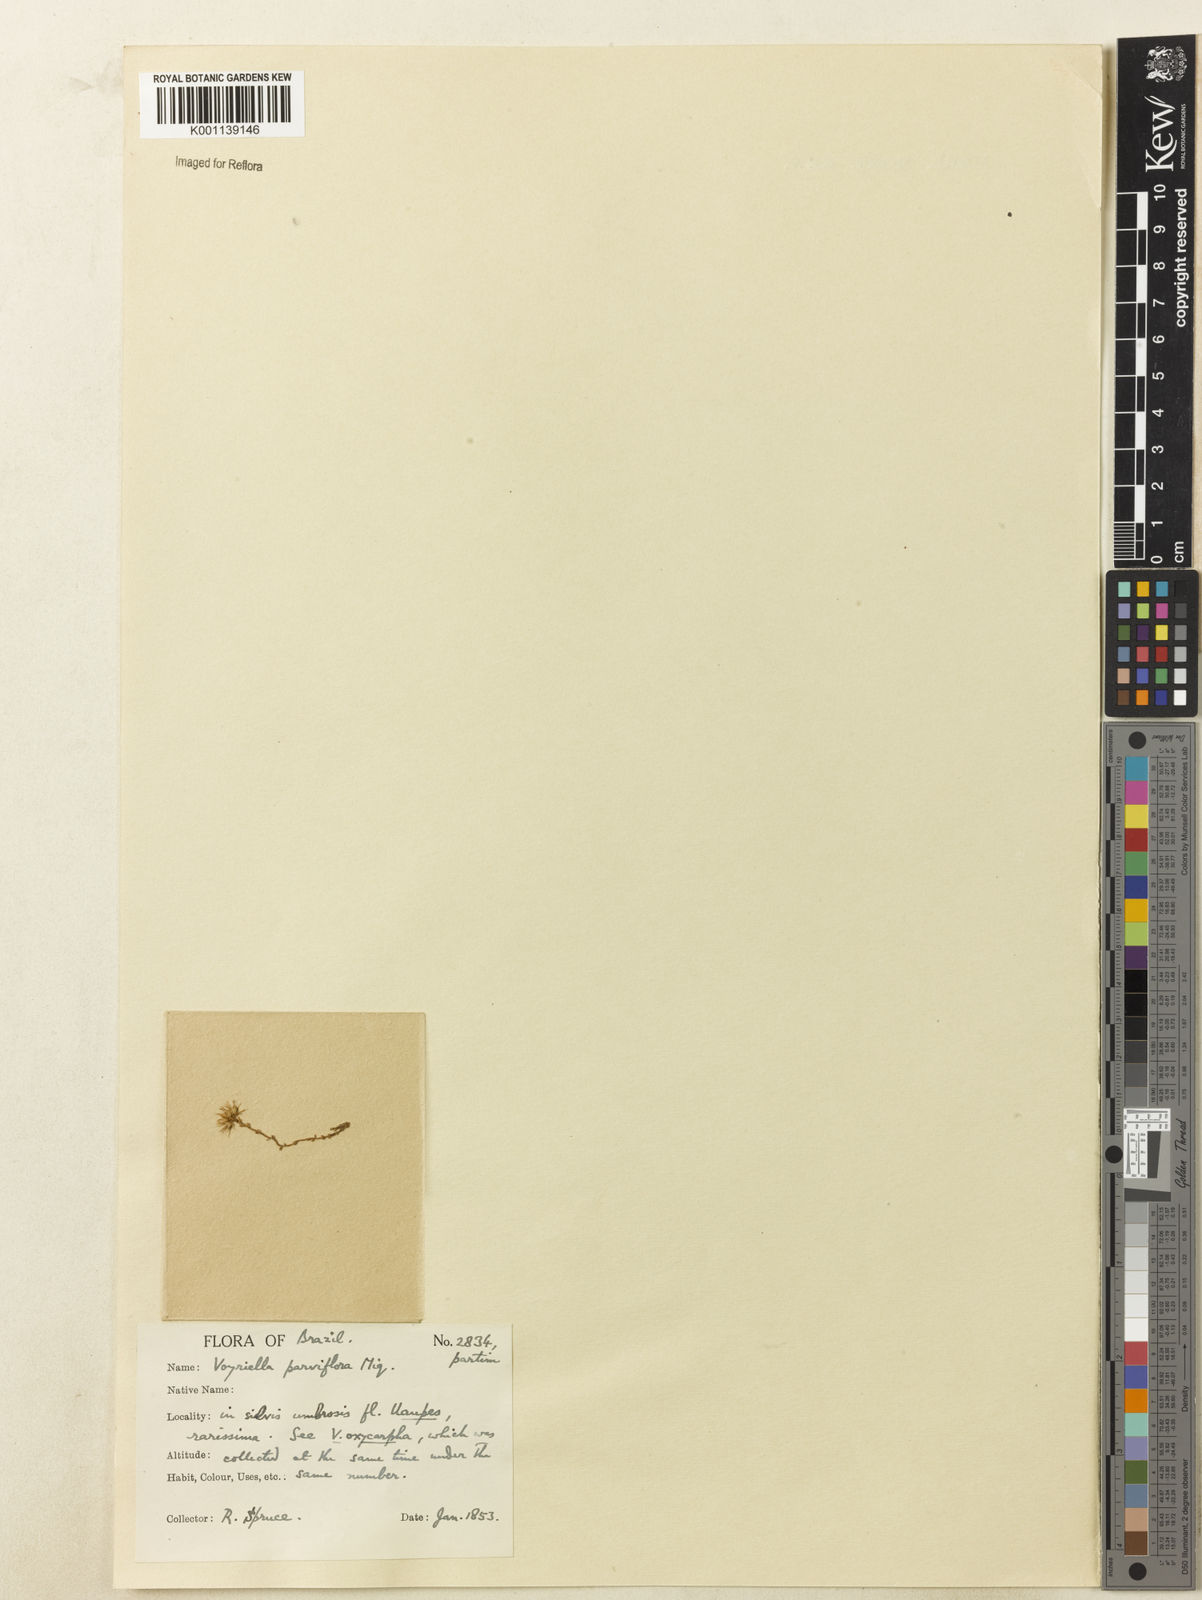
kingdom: Plantae
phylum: Tracheophyta
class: Magnoliopsida
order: Gentianales
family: Gentianaceae
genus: Voyriella
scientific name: Voyriella parviflora
